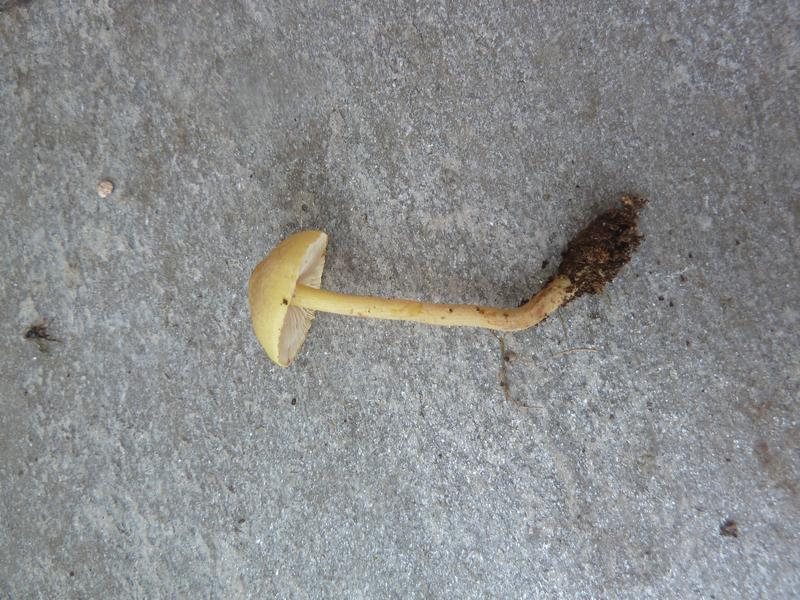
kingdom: Fungi
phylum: Basidiomycota
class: Agaricomycetes
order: Agaricales
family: Agaricaceae
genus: Cystolepiota
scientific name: Cystolepiota icterina
